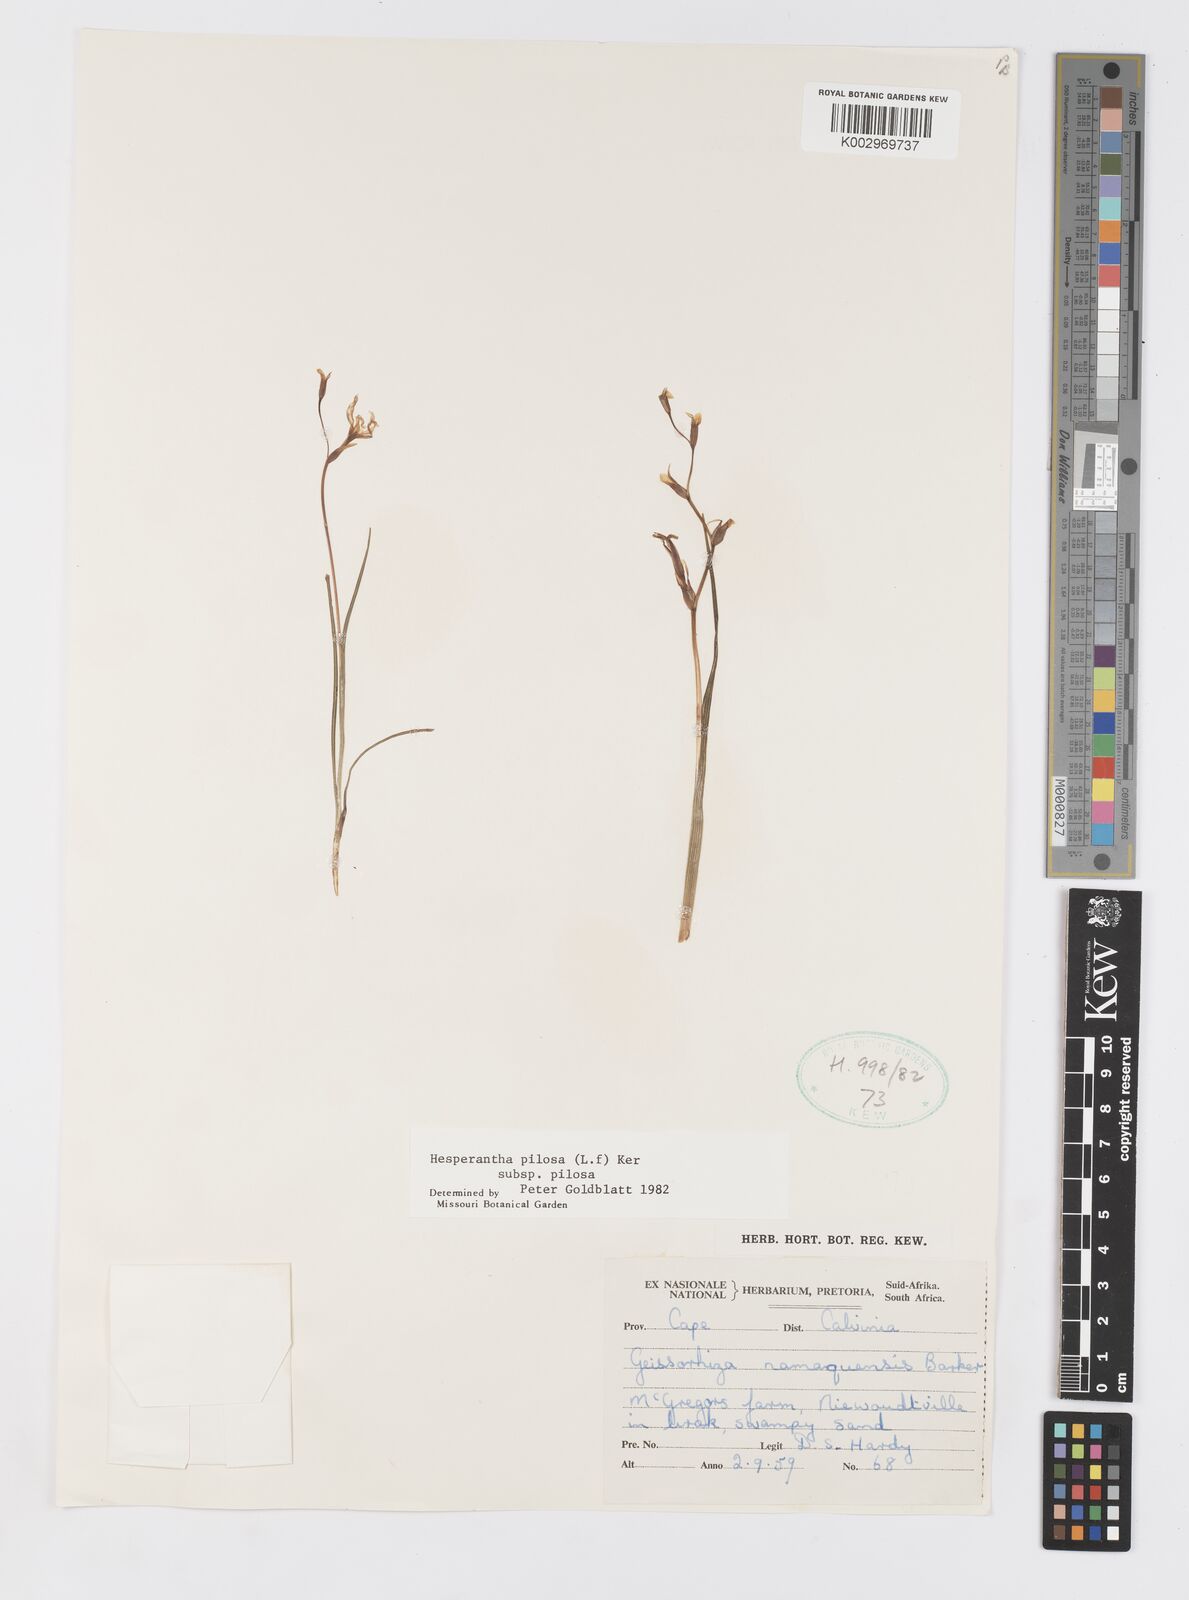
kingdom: Plantae
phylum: Tracheophyta
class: Liliopsida
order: Asparagales
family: Iridaceae
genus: Hesperantha
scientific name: Hesperantha pilosa
